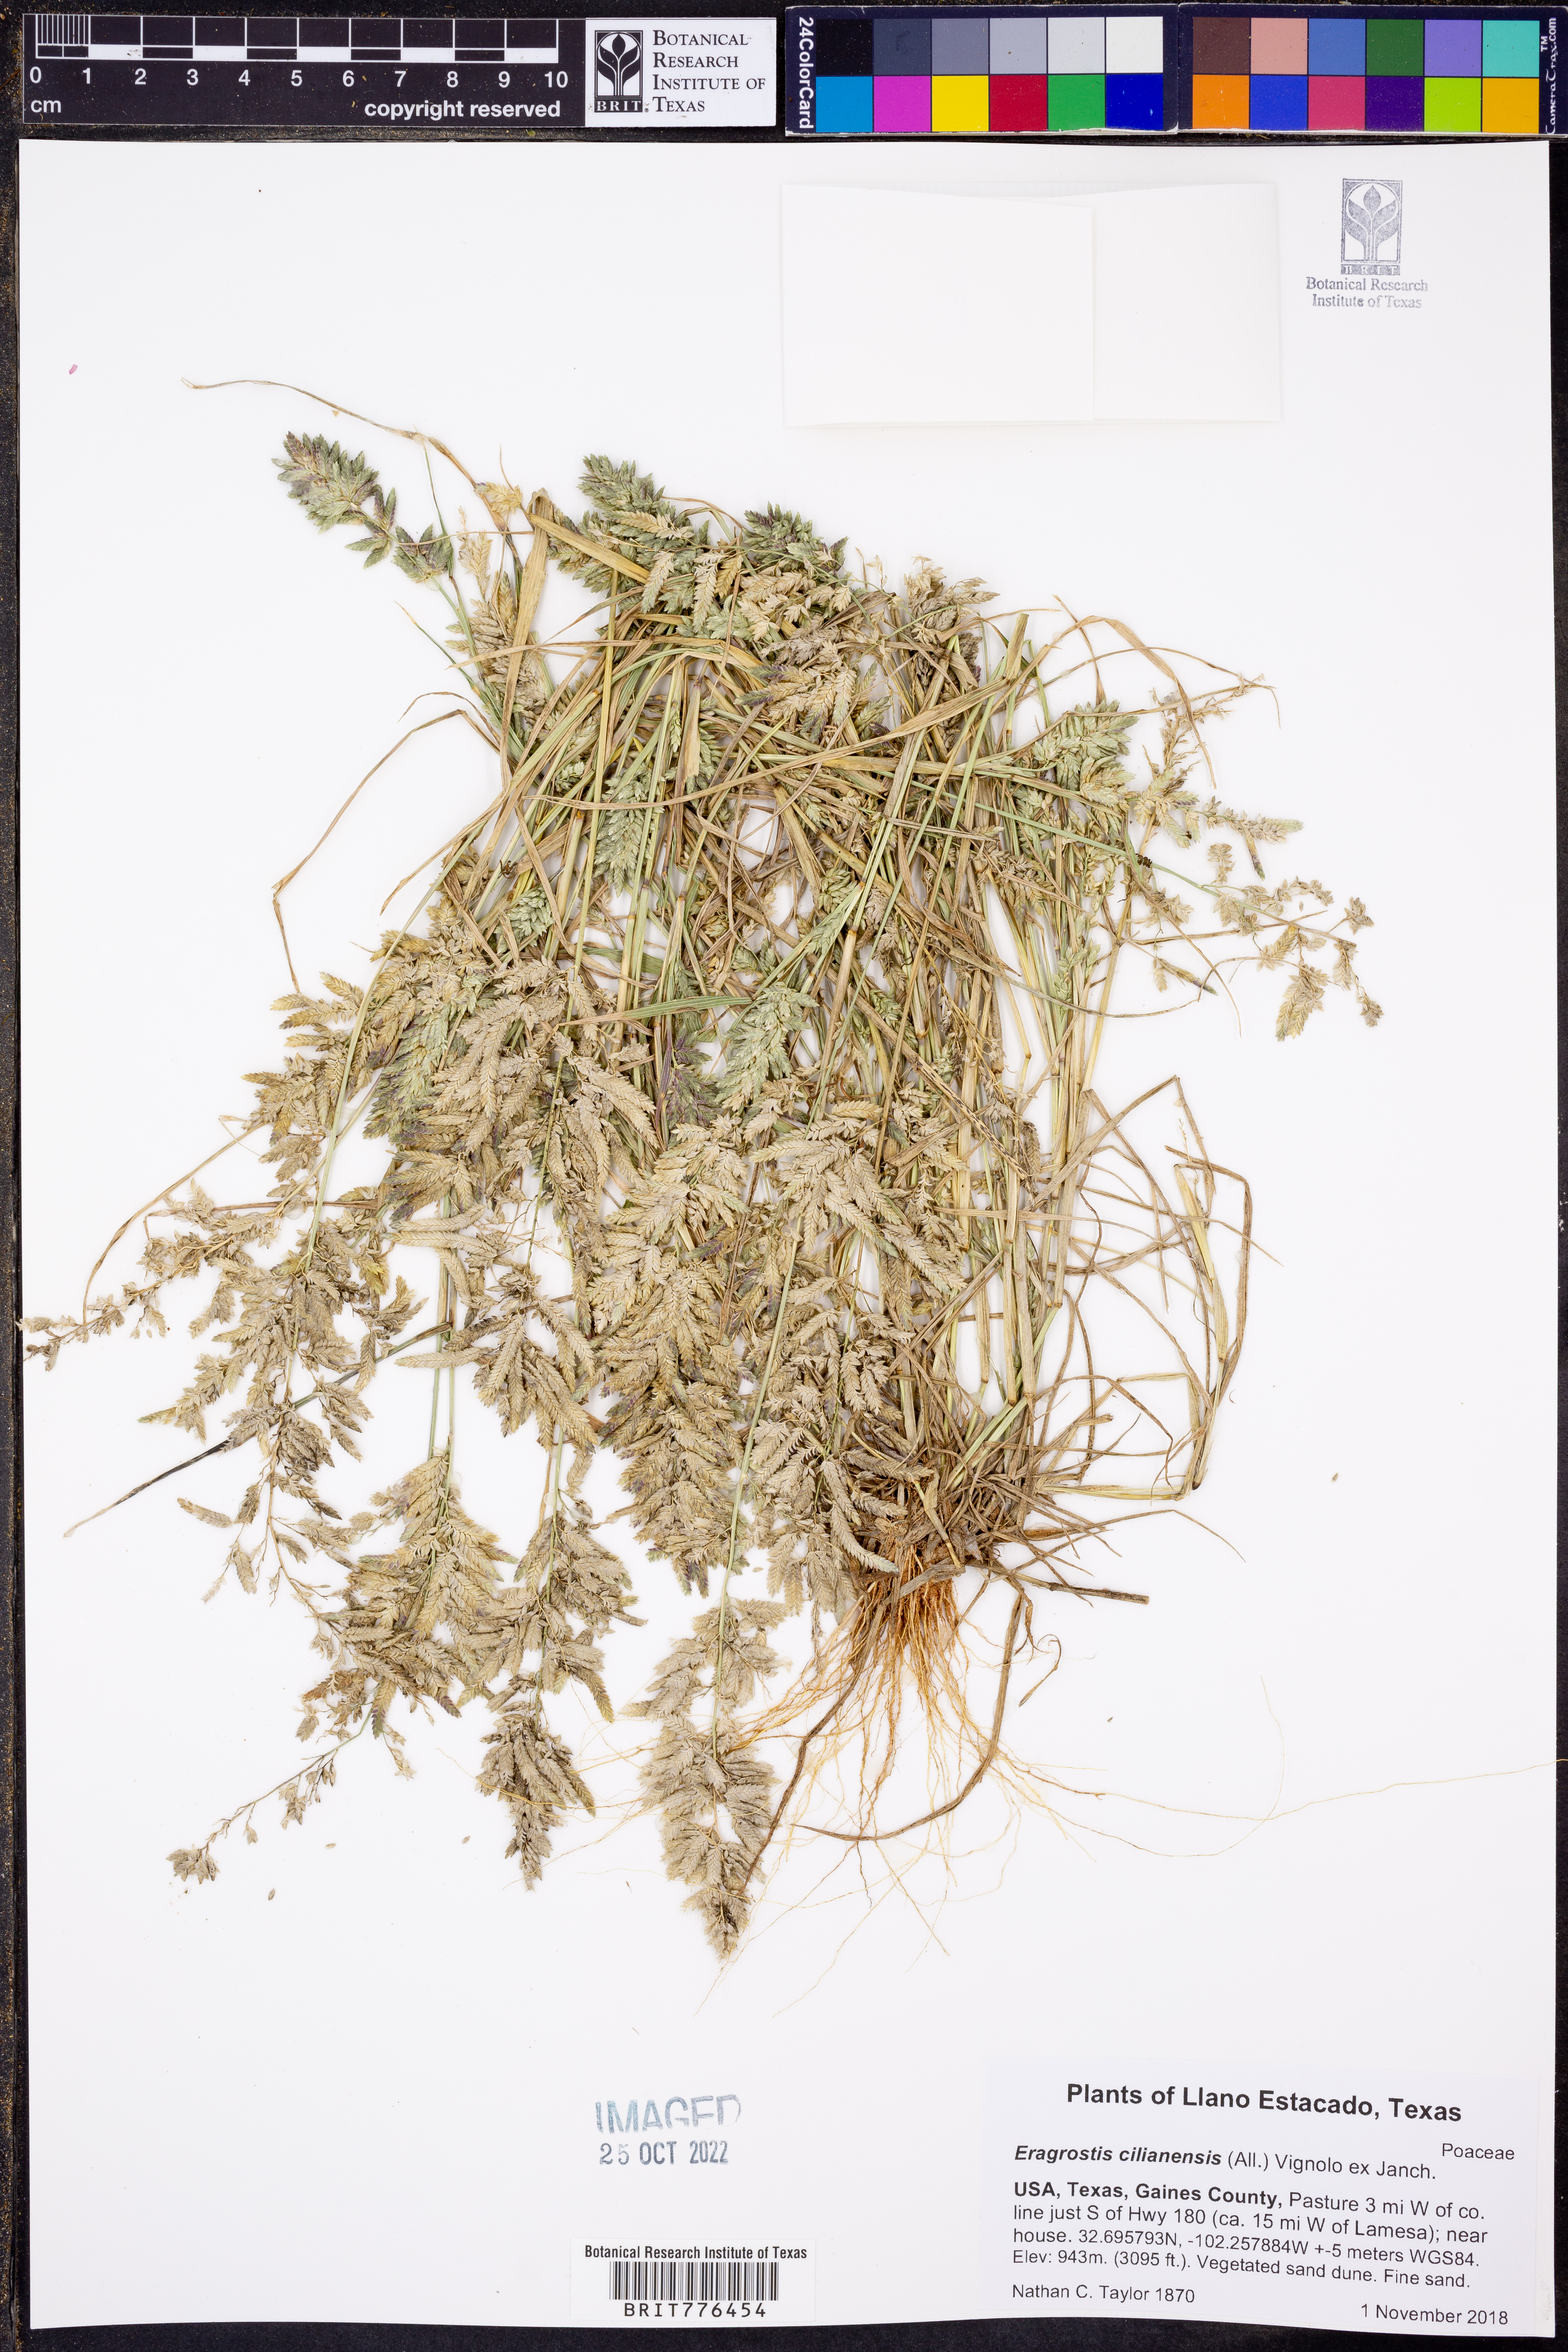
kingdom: Plantae
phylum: Tracheophyta
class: Liliopsida
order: Poales
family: Poaceae
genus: Eragrostis
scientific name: Eragrostis cilianensis
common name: Stinkgrass
